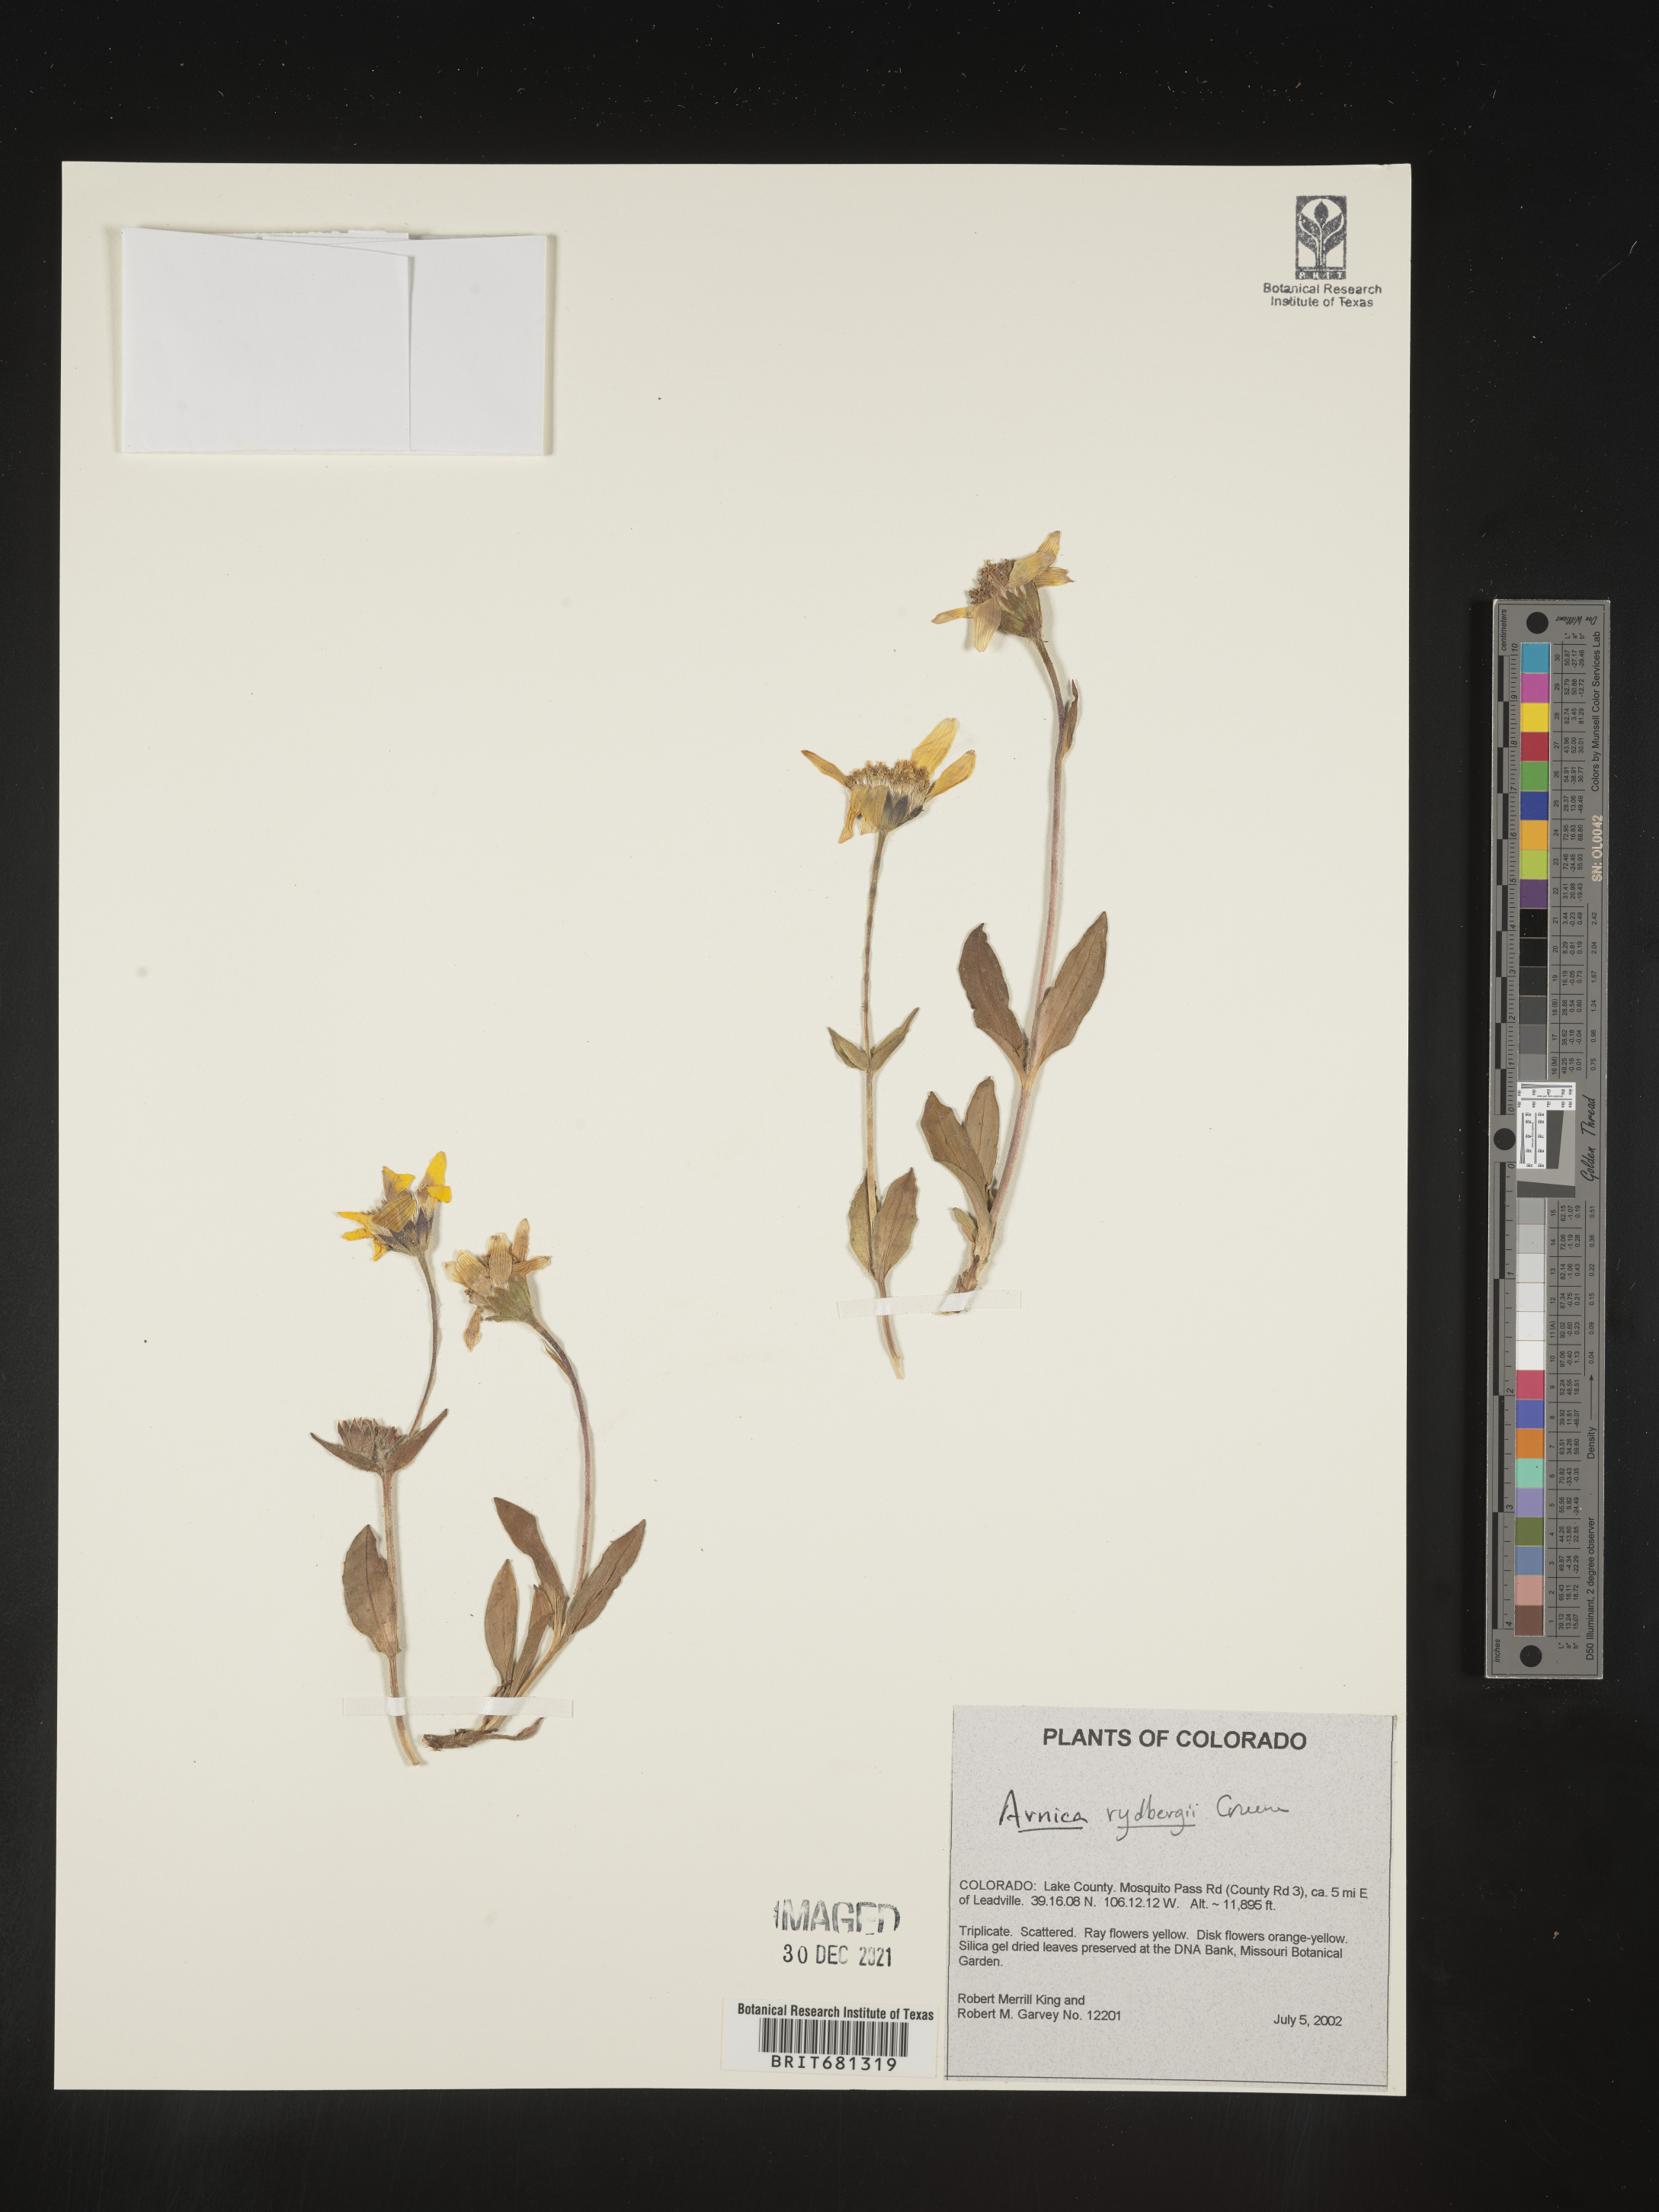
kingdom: Plantae
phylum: Tracheophyta
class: Magnoliopsida
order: Asterales
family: Asteraceae
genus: Arnica
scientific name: Arnica rydbergii
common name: Rydberg's arnica
